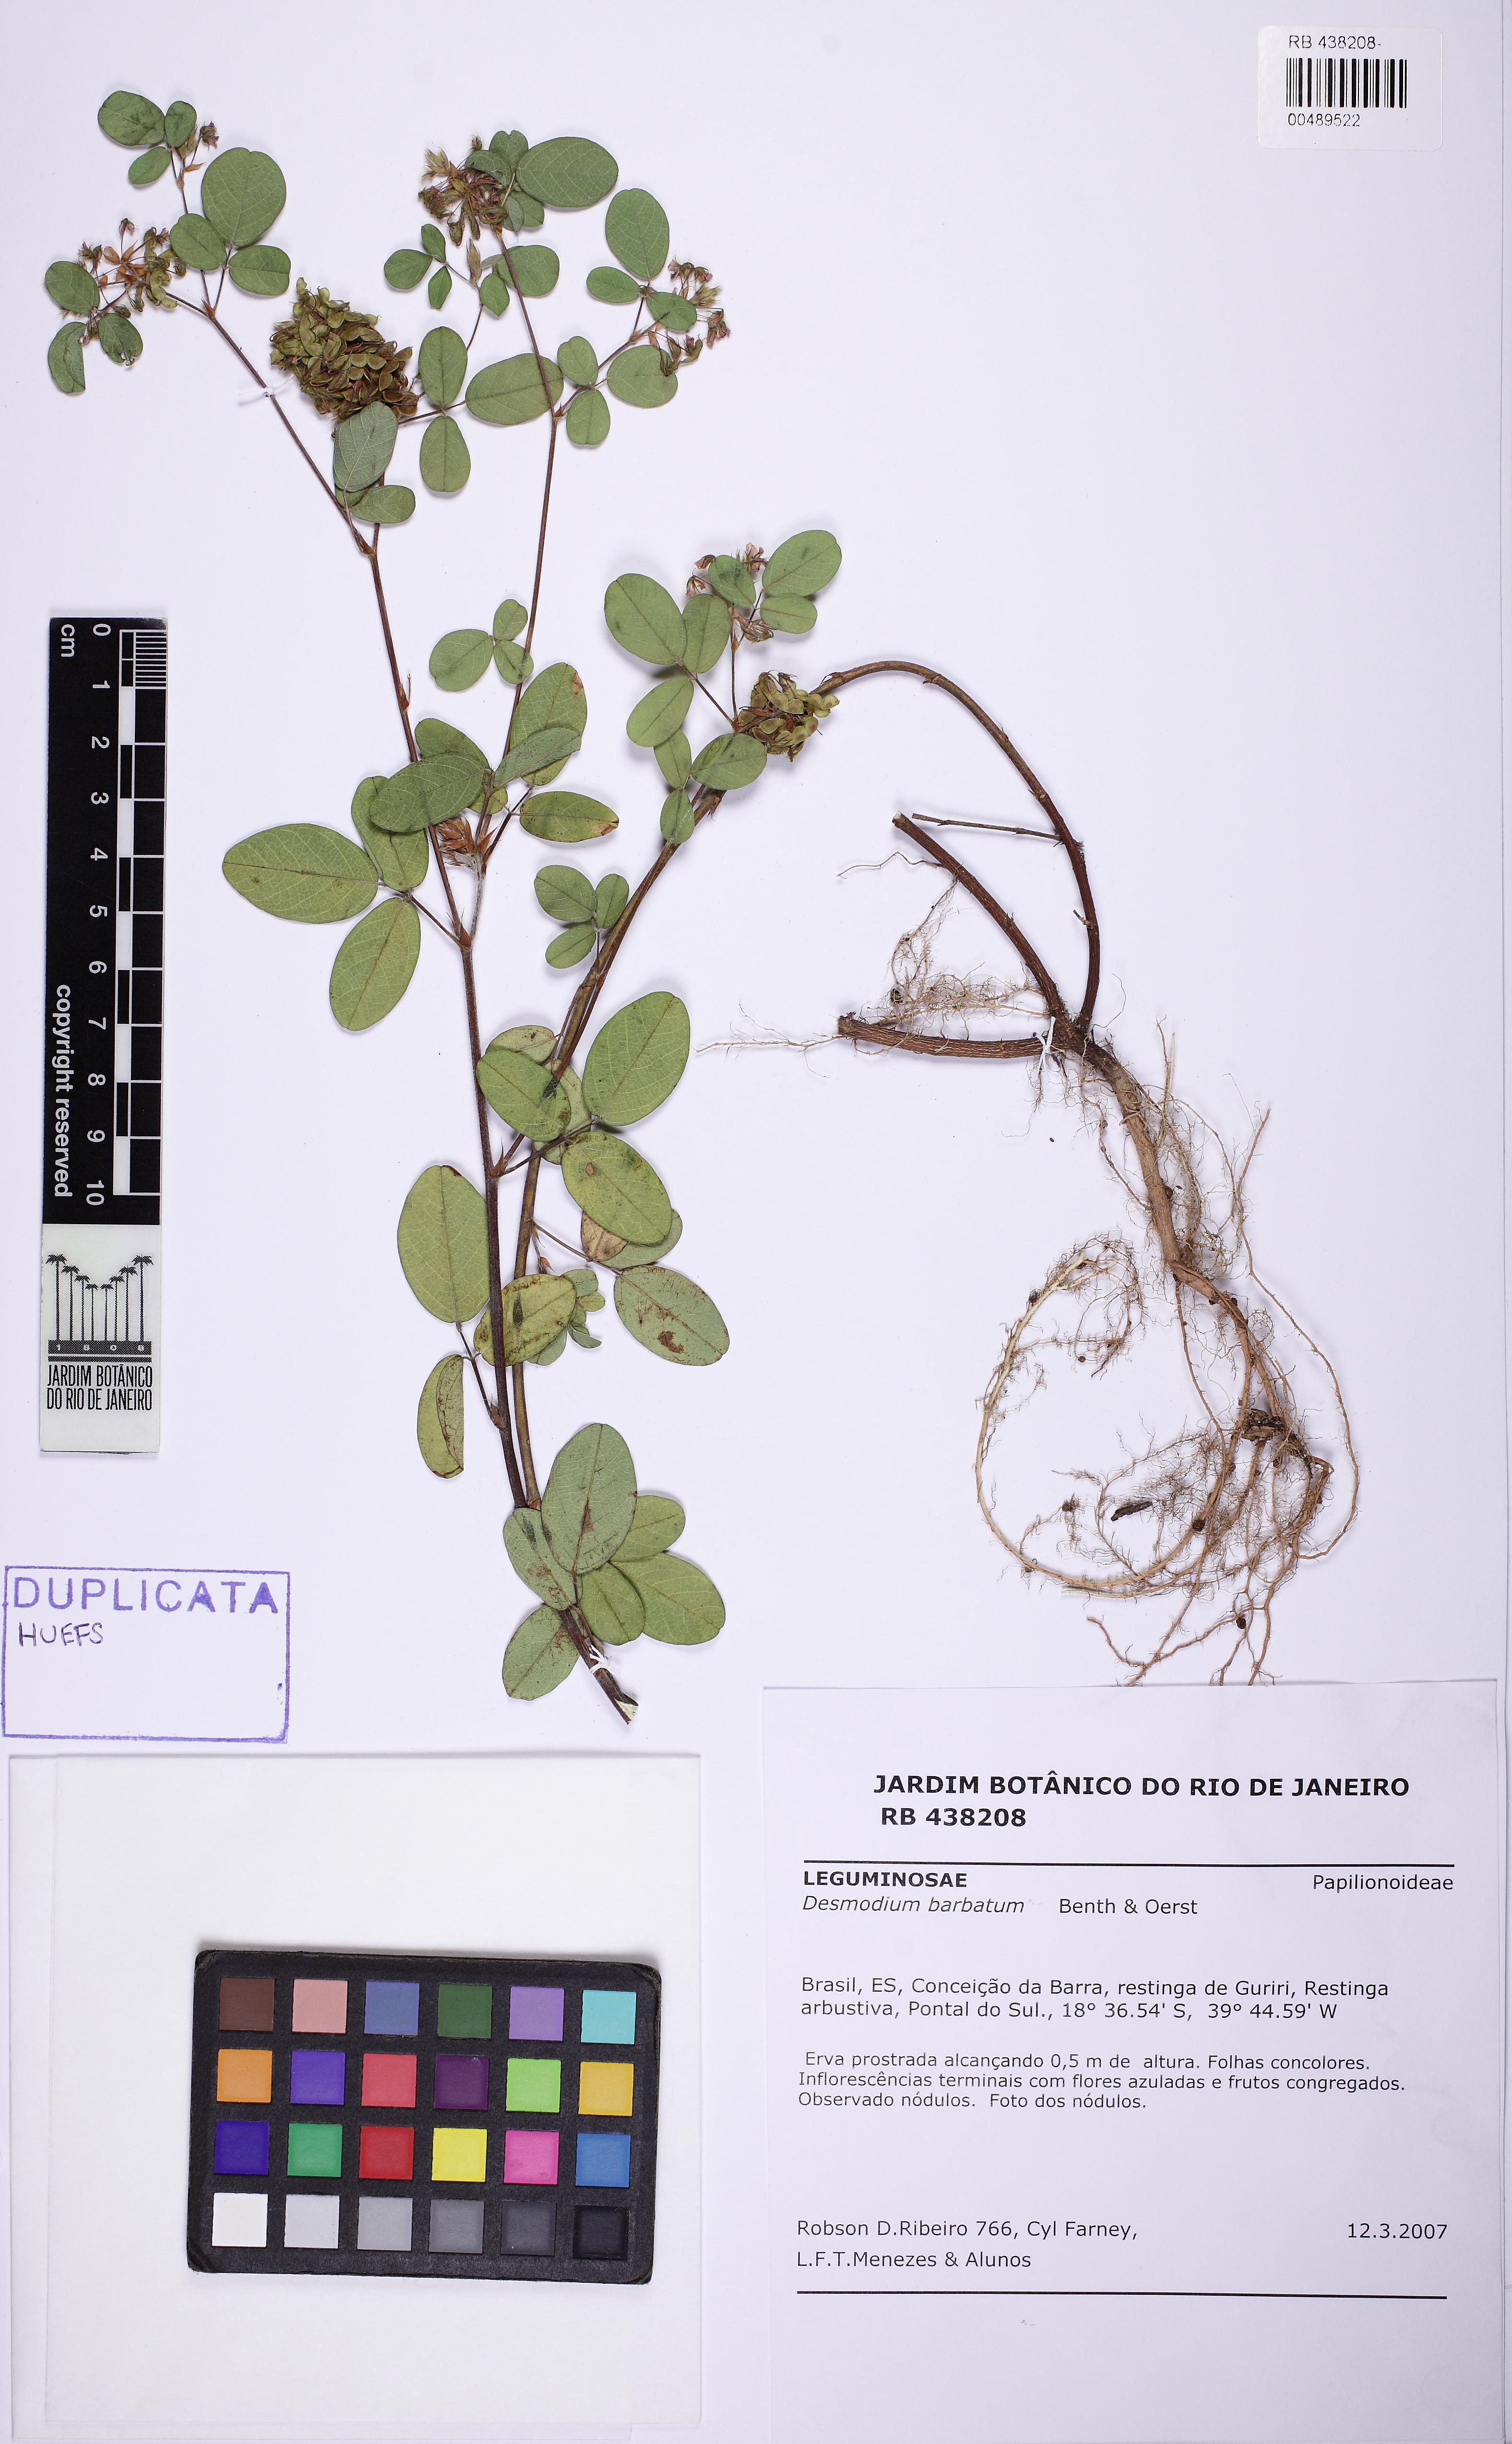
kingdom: Plantae
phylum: Tracheophyta
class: Magnoliopsida
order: Fabales
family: Fabaceae
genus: Grona
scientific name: Grona barbata
